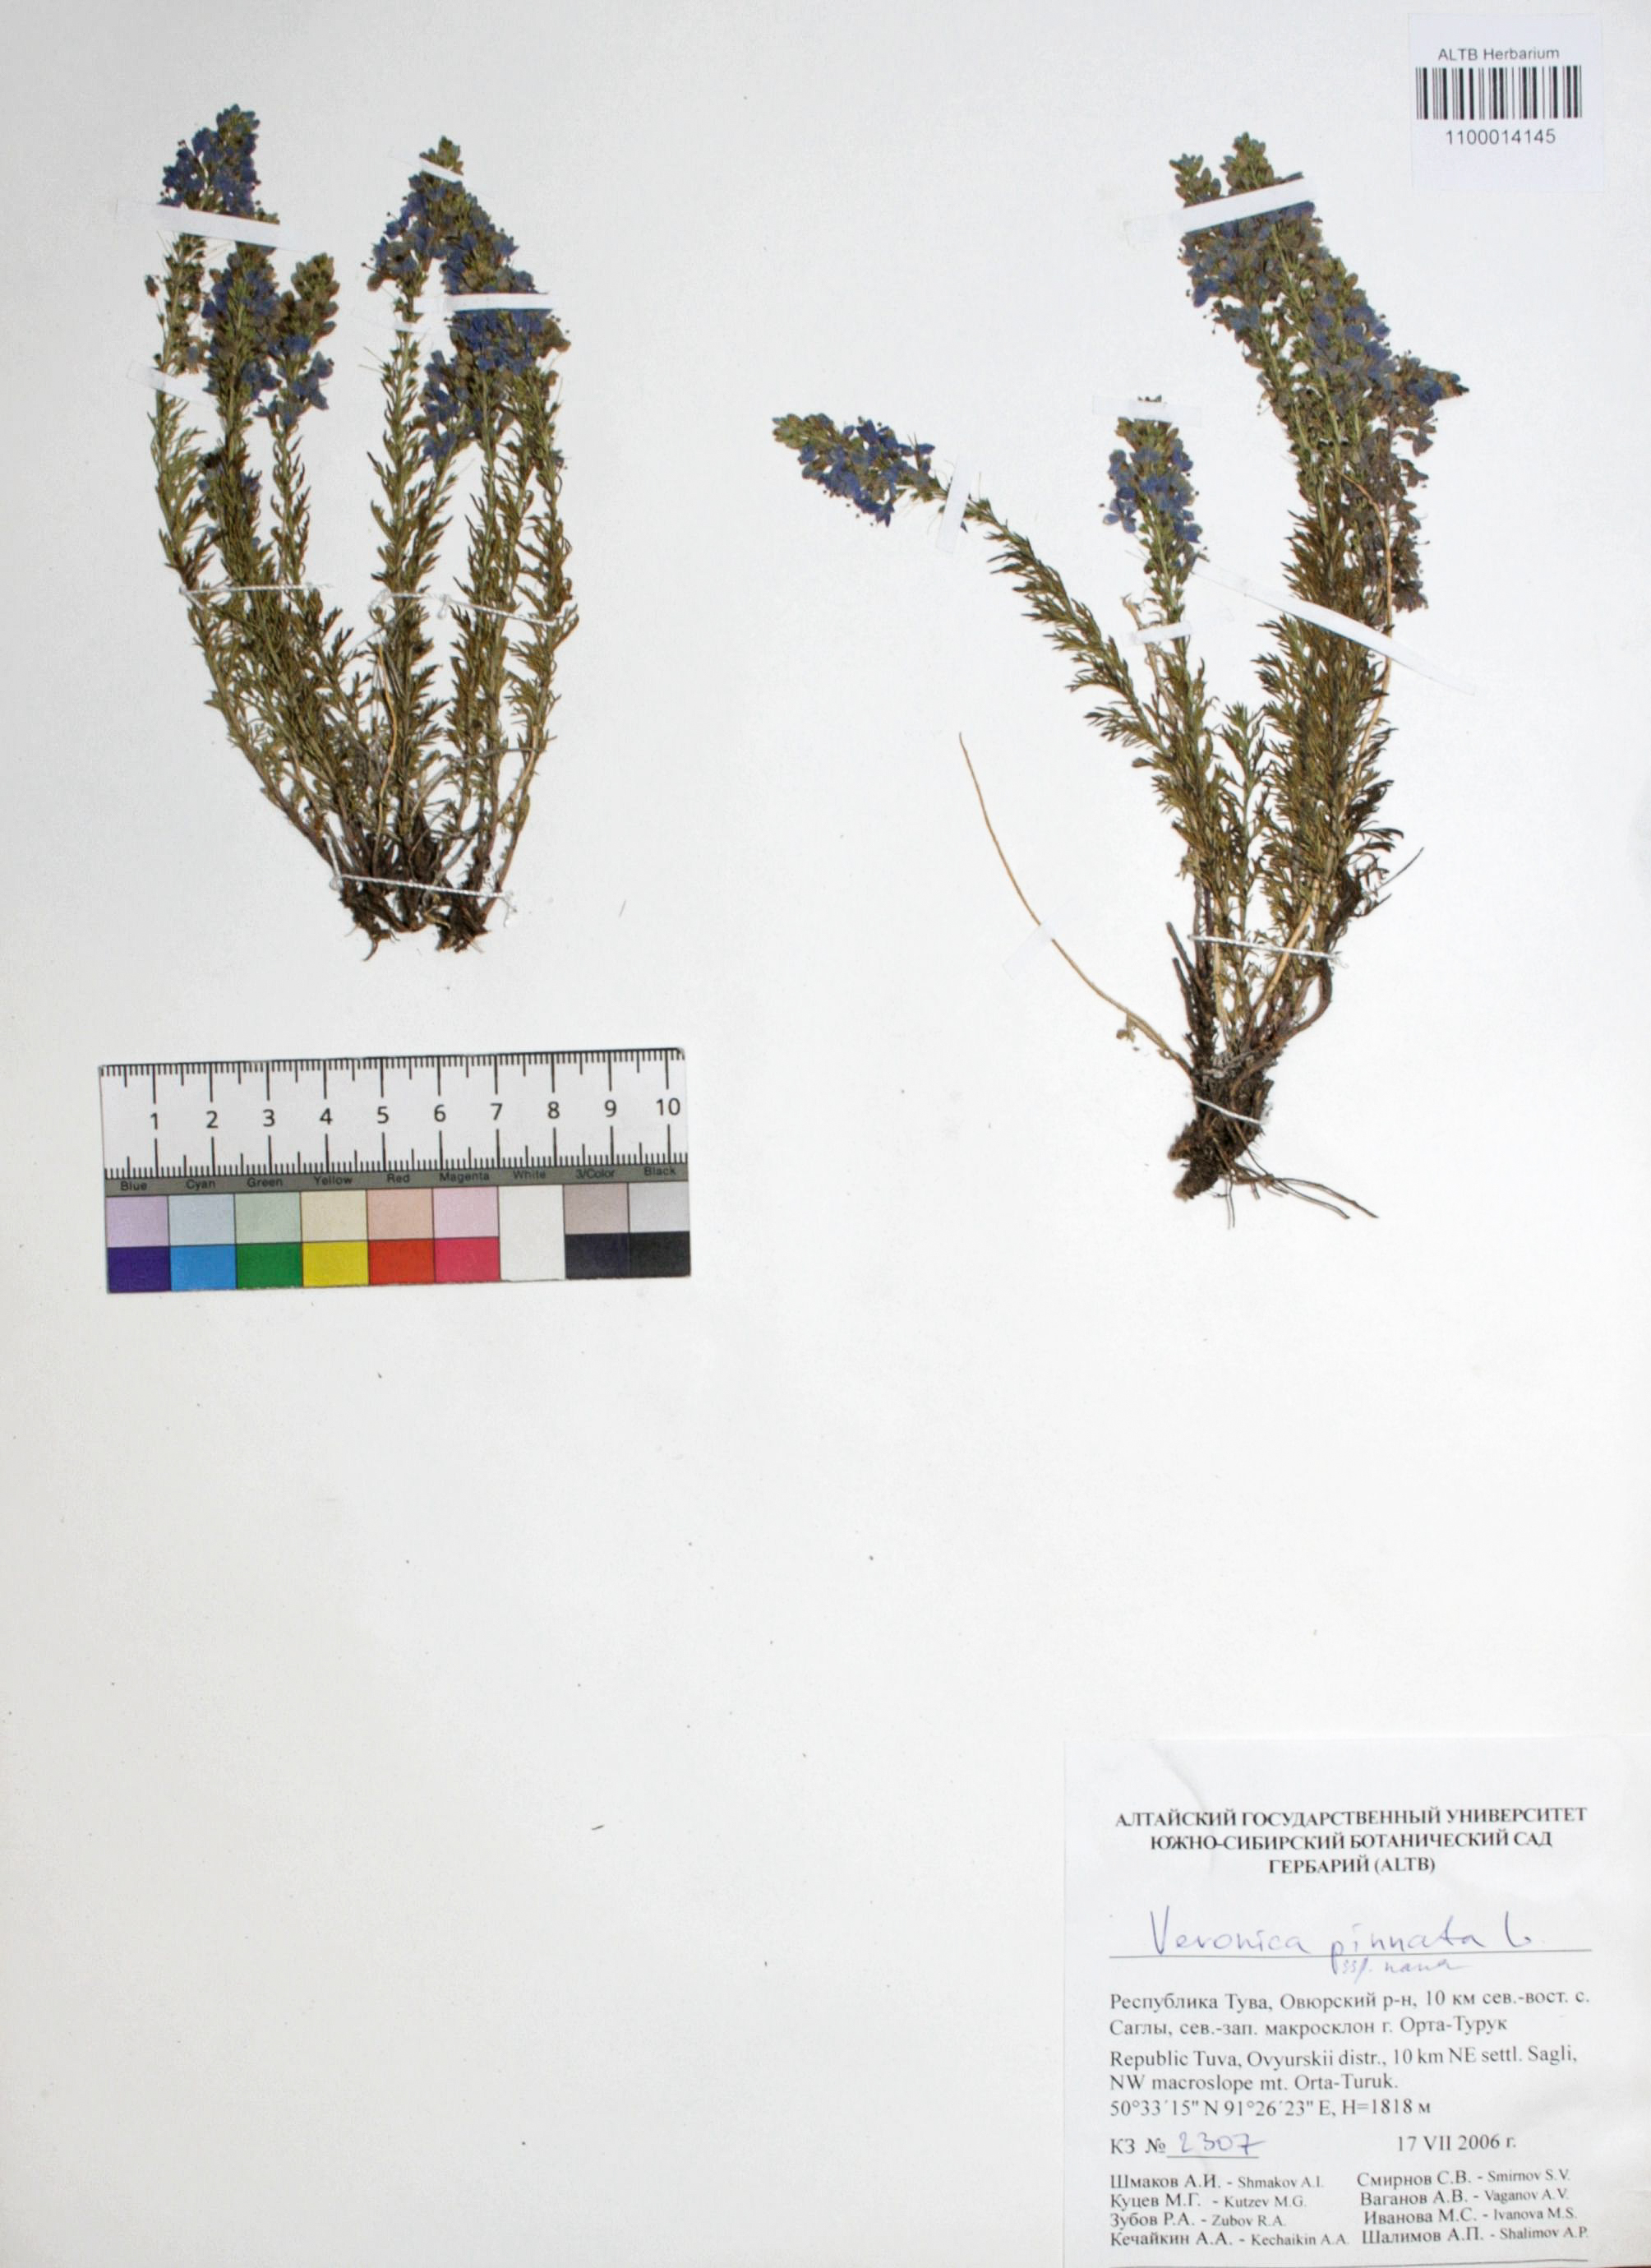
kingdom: Plantae
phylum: Tracheophyta
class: Magnoliopsida
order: Lamiales
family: Plantaginaceae
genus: Veronica
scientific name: Veronica pinnata
